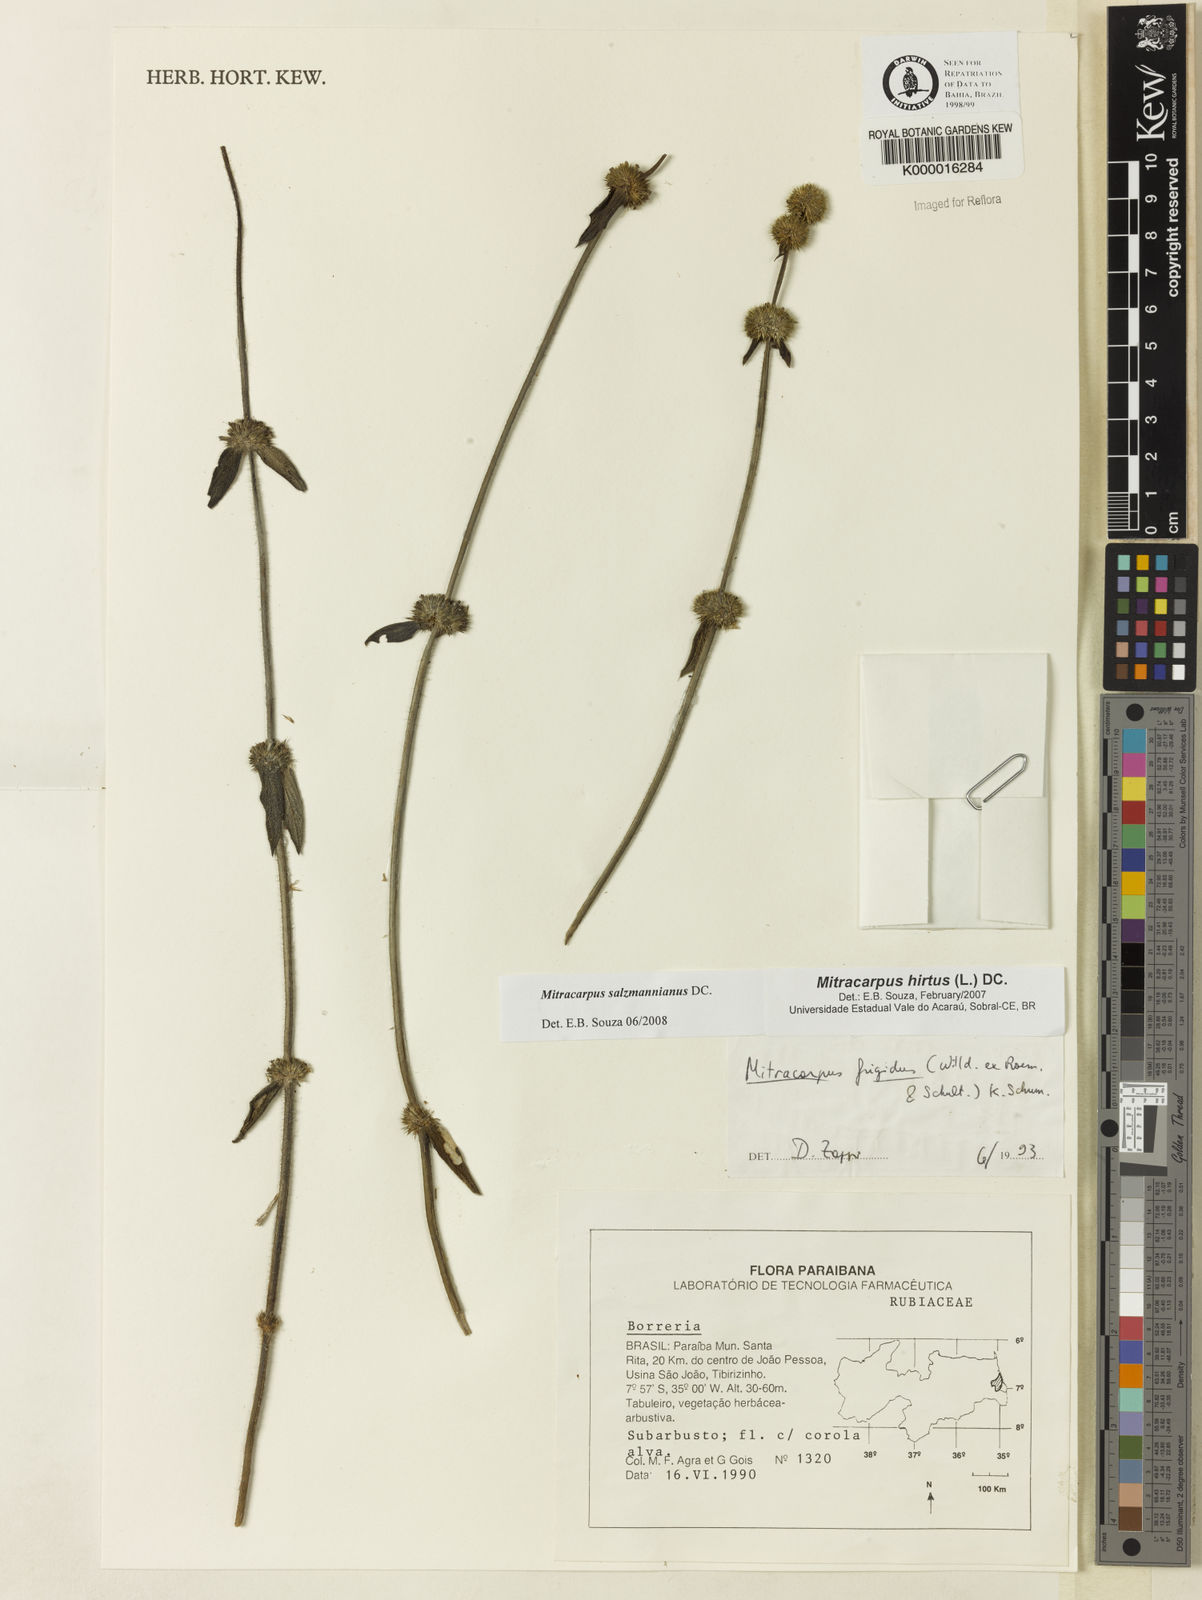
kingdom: Plantae
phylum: Tracheophyta
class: Magnoliopsida
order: Gentianales
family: Rubiaceae
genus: Mitracarpus
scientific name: Mitracarpus salzmannianus
